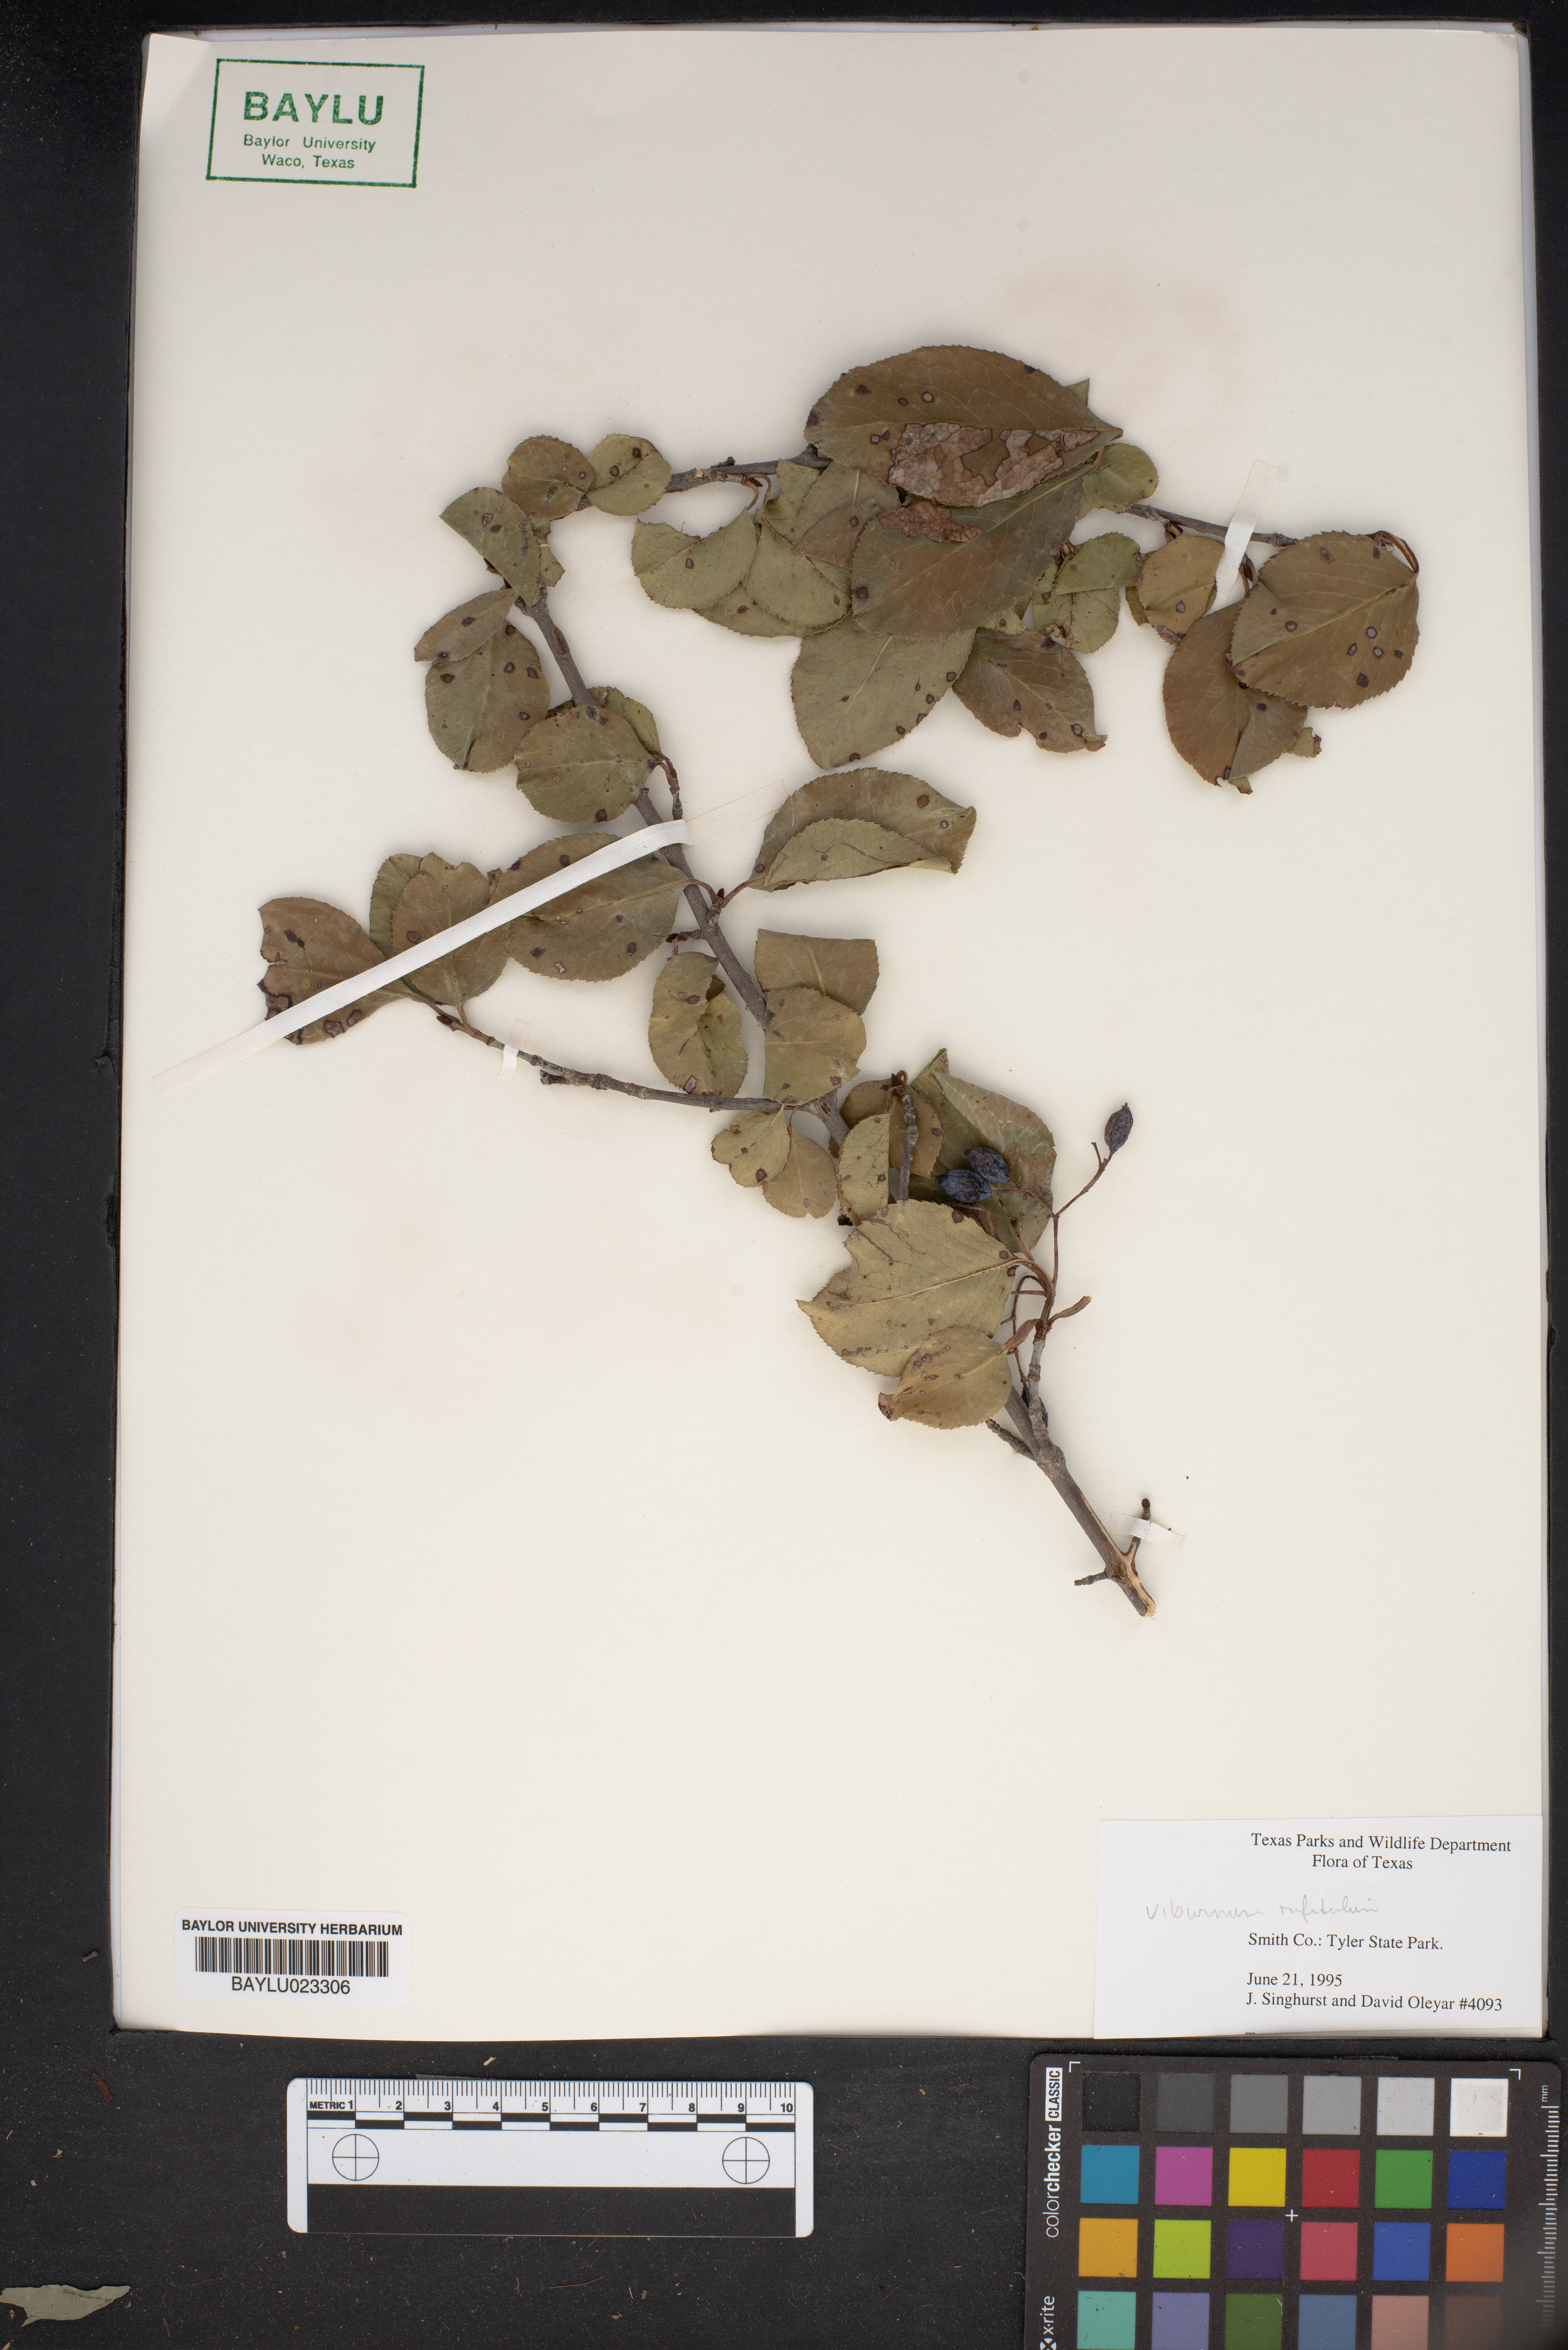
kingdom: Plantae
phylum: Tracheophyta
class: Magnoliopsida
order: Dipsacales
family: Viburnaceae
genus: Viburnum
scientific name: Viburnum rufidulum
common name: Blue haw
